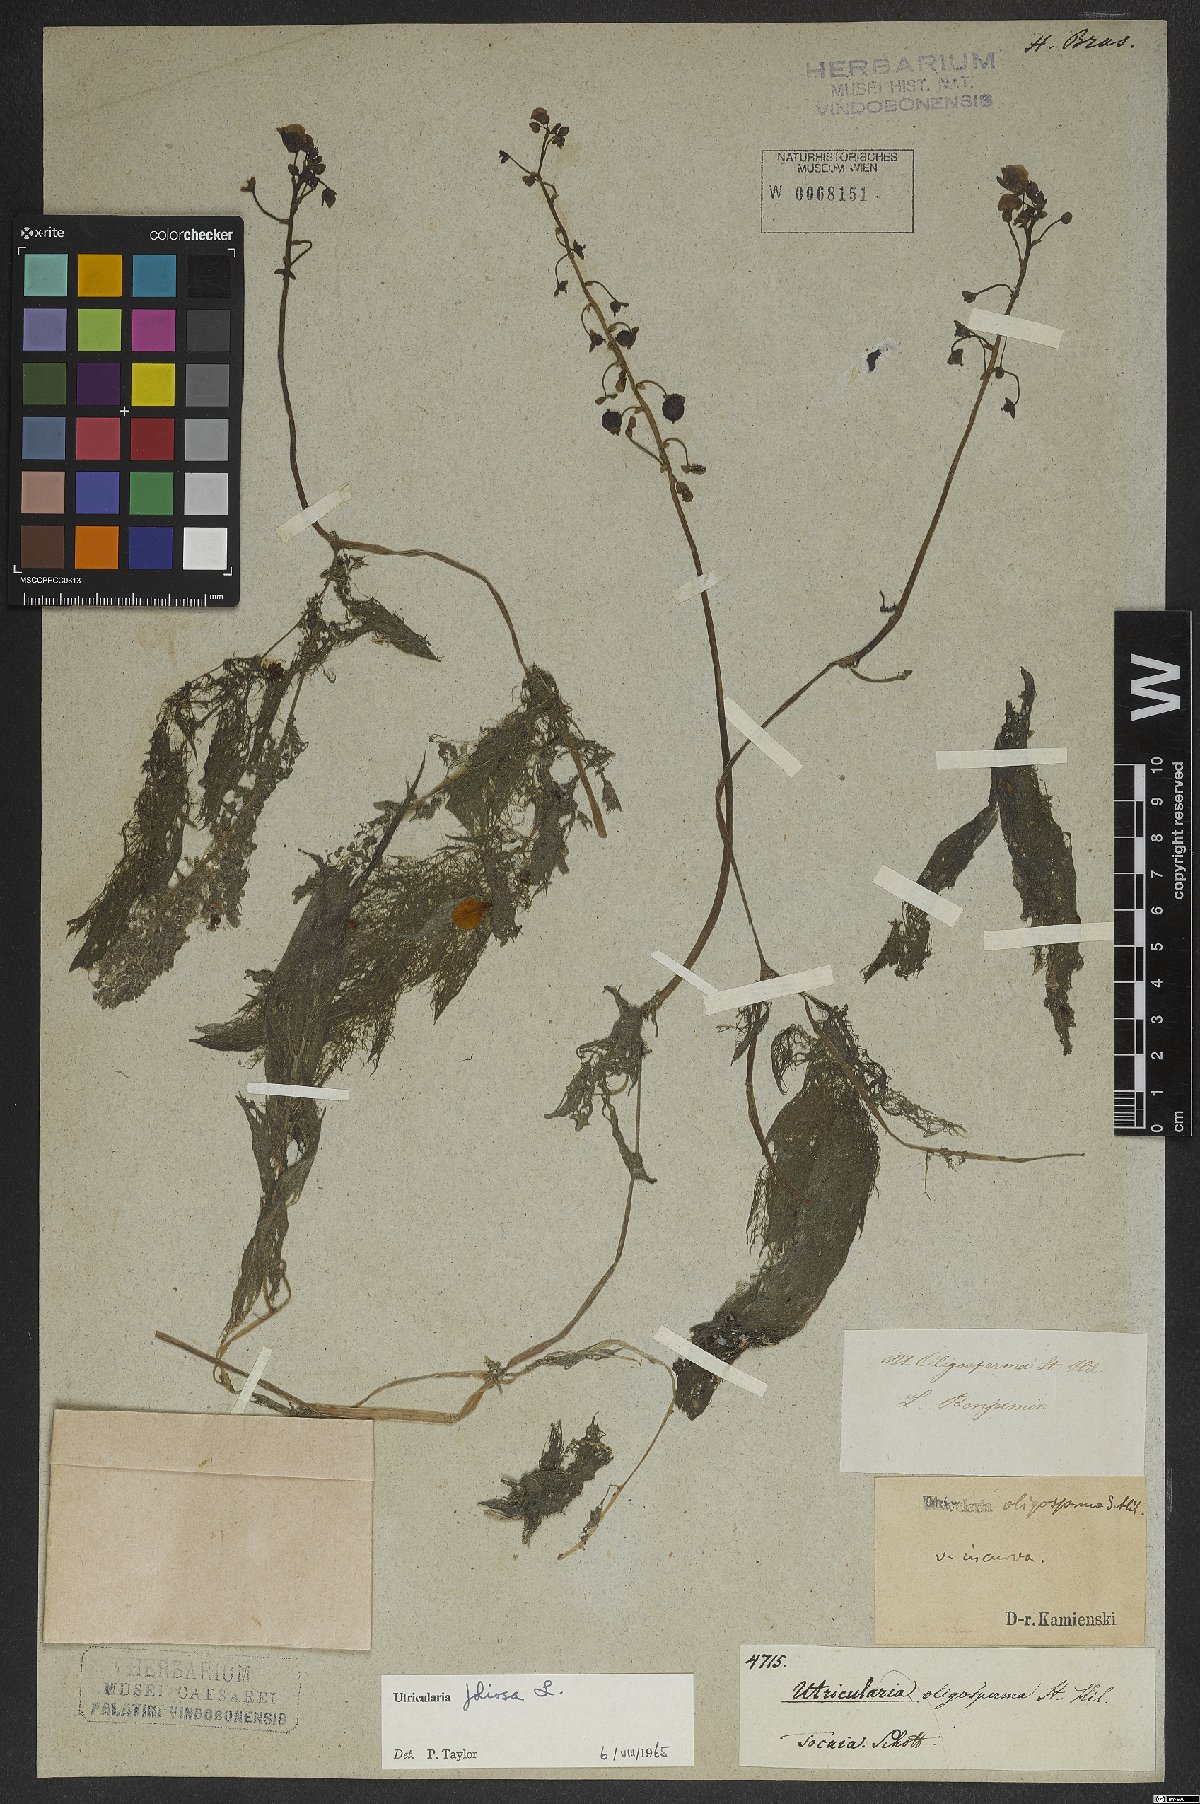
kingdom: Plantae
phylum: Tracheophyta
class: Magnoliopsida
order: Lamiales
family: Lentibulariaceae
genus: Utricularia
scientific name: Utricularia foliosa
